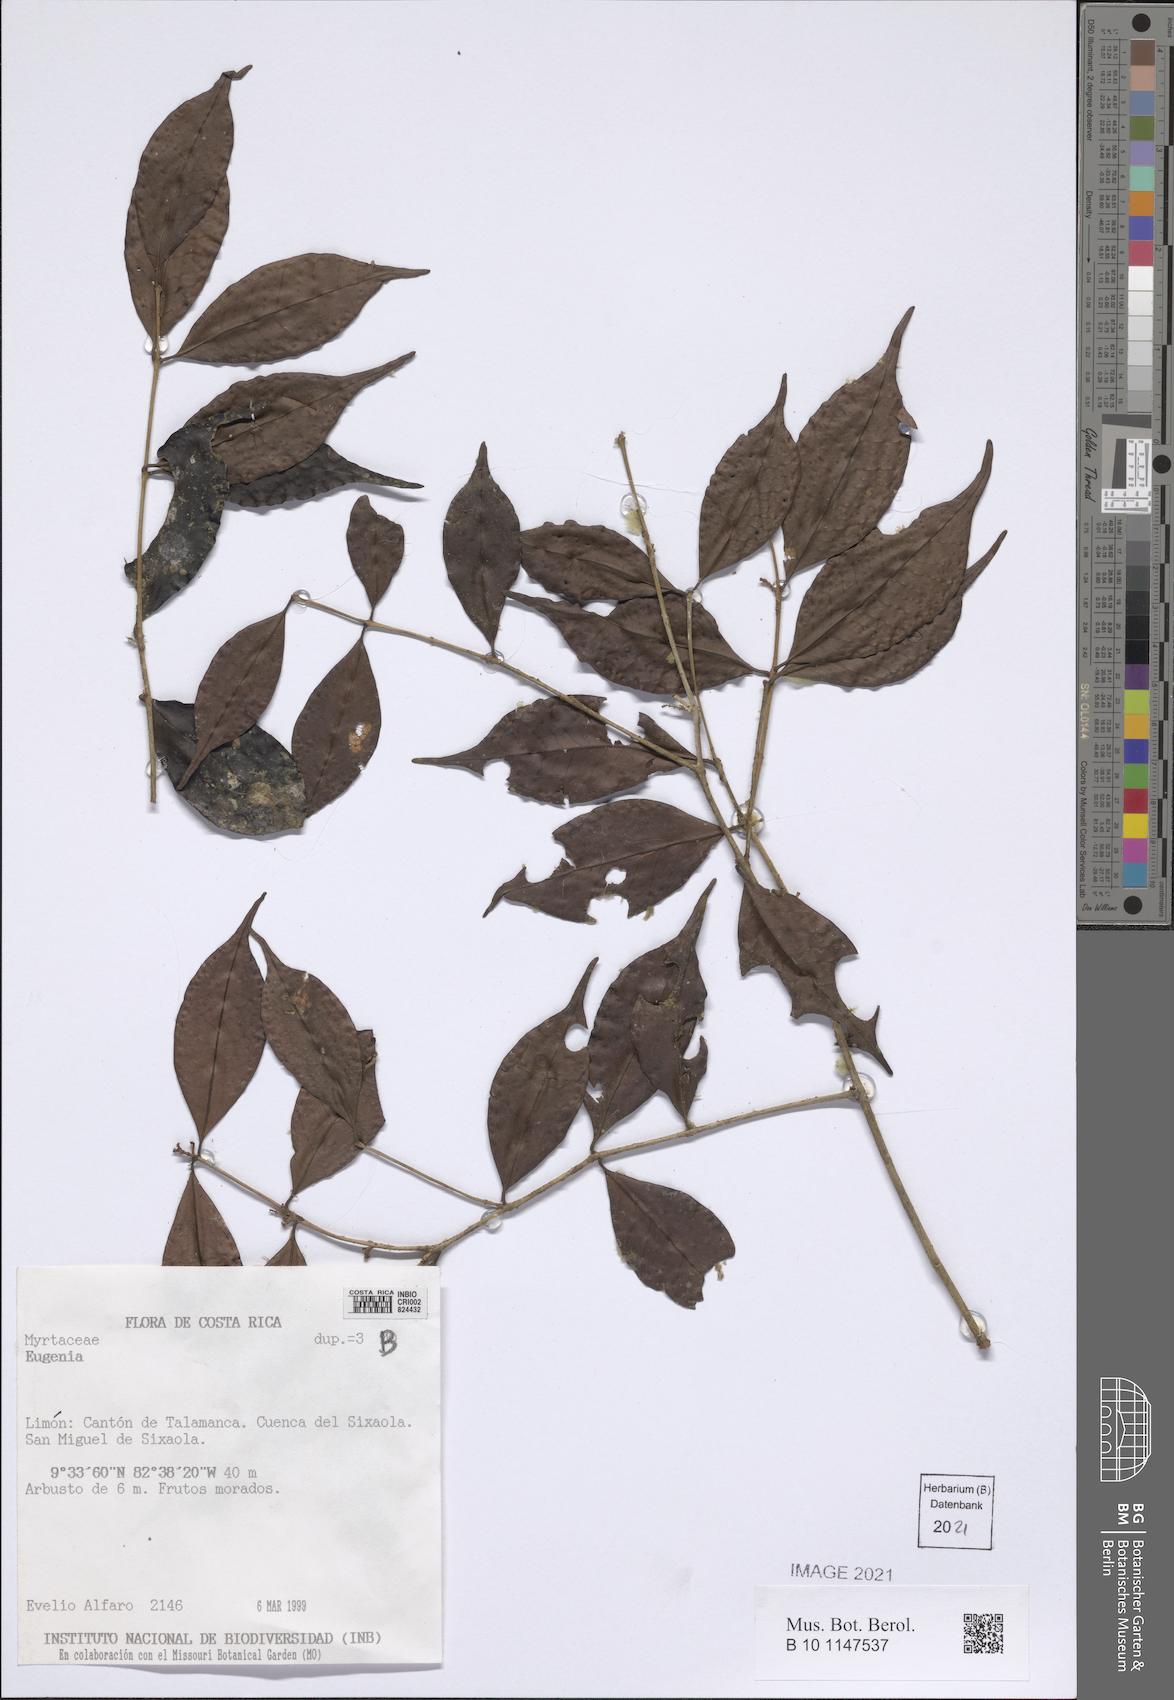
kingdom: Plantae
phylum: Tracheophyta
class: Magnoliopsida
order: Myrtales
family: Myrtaceae
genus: Eugenia
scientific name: Eugenia
